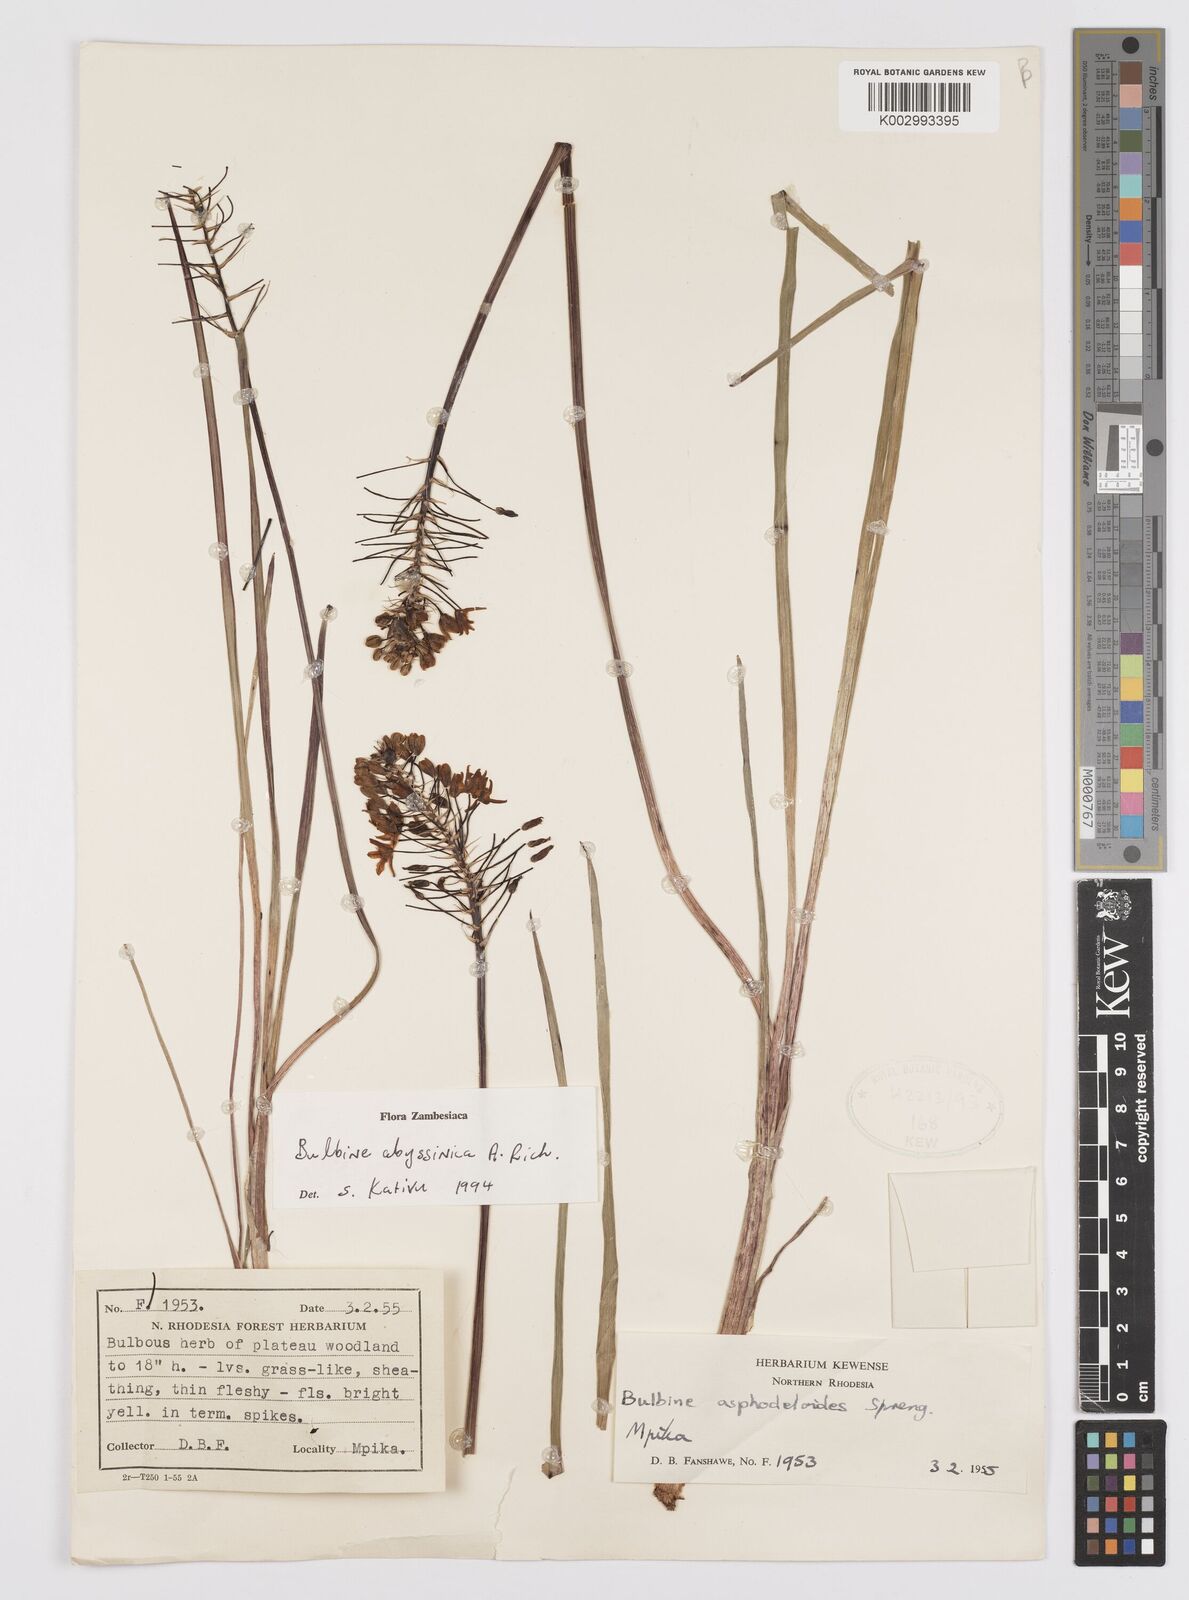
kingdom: Plantae
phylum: Tracheophyta
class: Liliopsida
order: Asparagales
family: Asphodelaceae
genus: Bulbine
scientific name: Bulbine abyssinica
